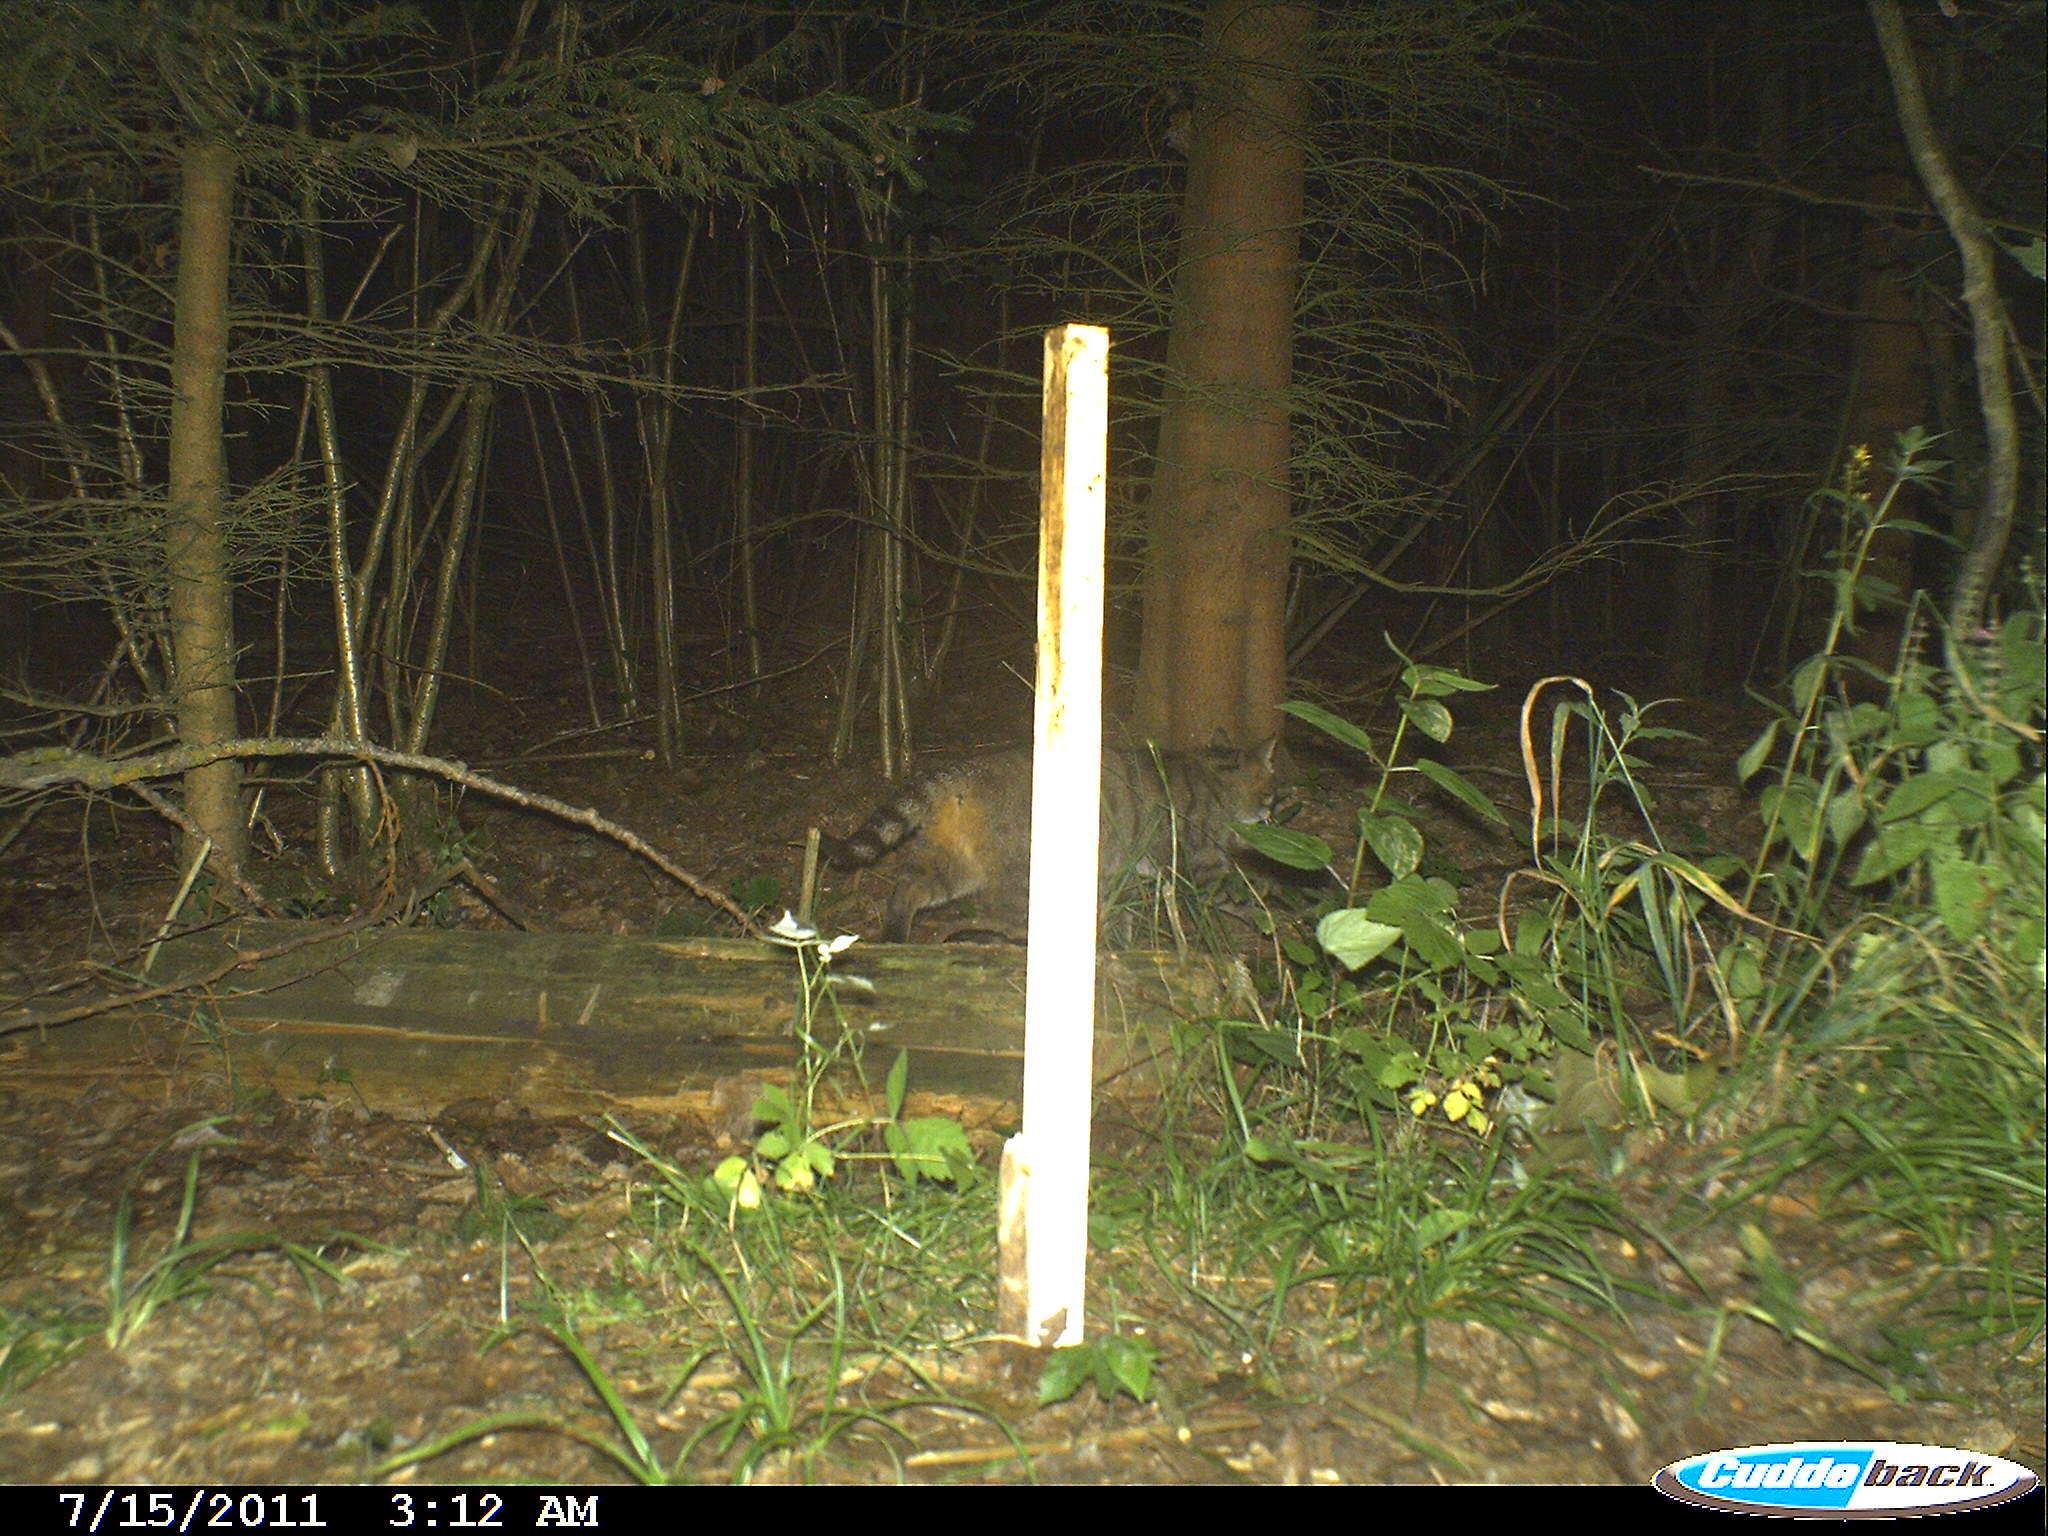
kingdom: Animalia
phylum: Chordata
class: Mammalia
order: Carnivora
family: Felidae
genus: Felis
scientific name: Felis silvestris
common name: Wildcat
